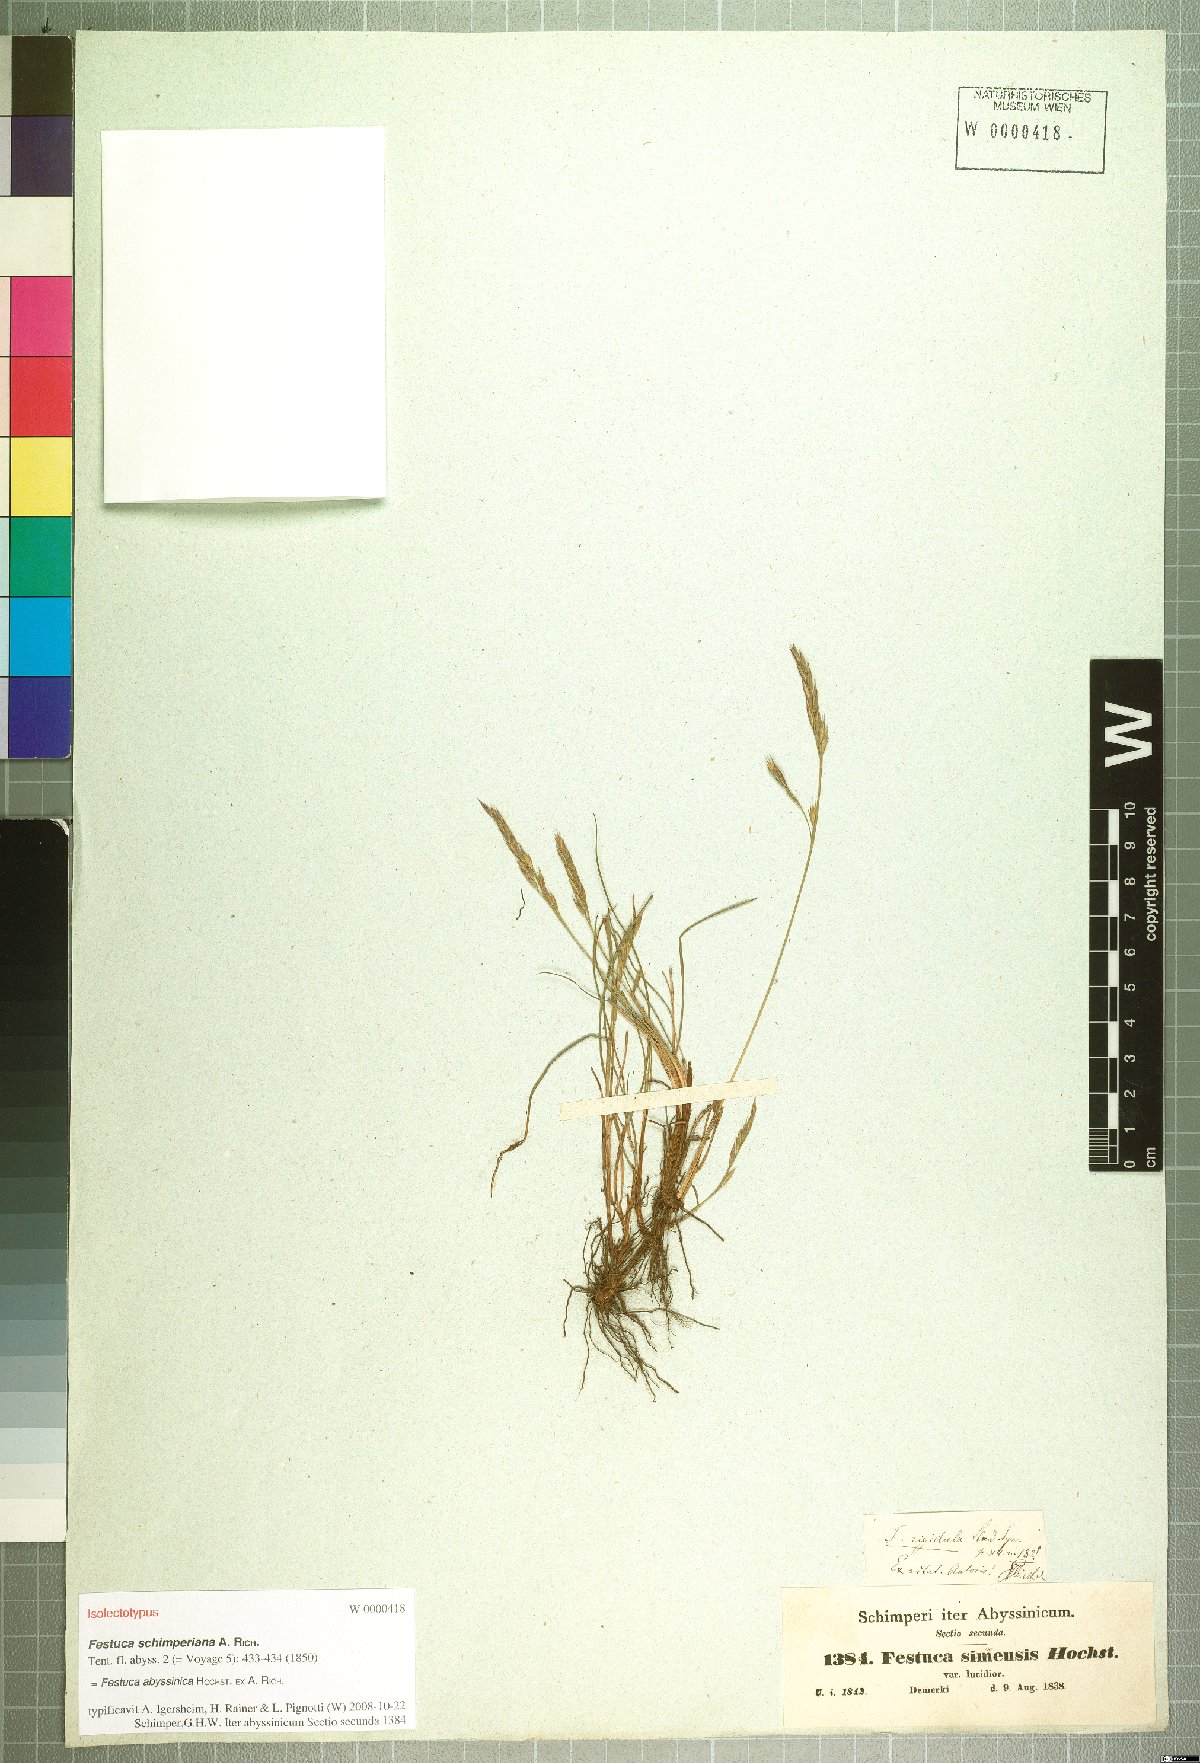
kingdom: Plantae
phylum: Tracheophyta
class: Liliopsida
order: Poales
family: Poaceae
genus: Festuca
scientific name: Festuca abyssinica
